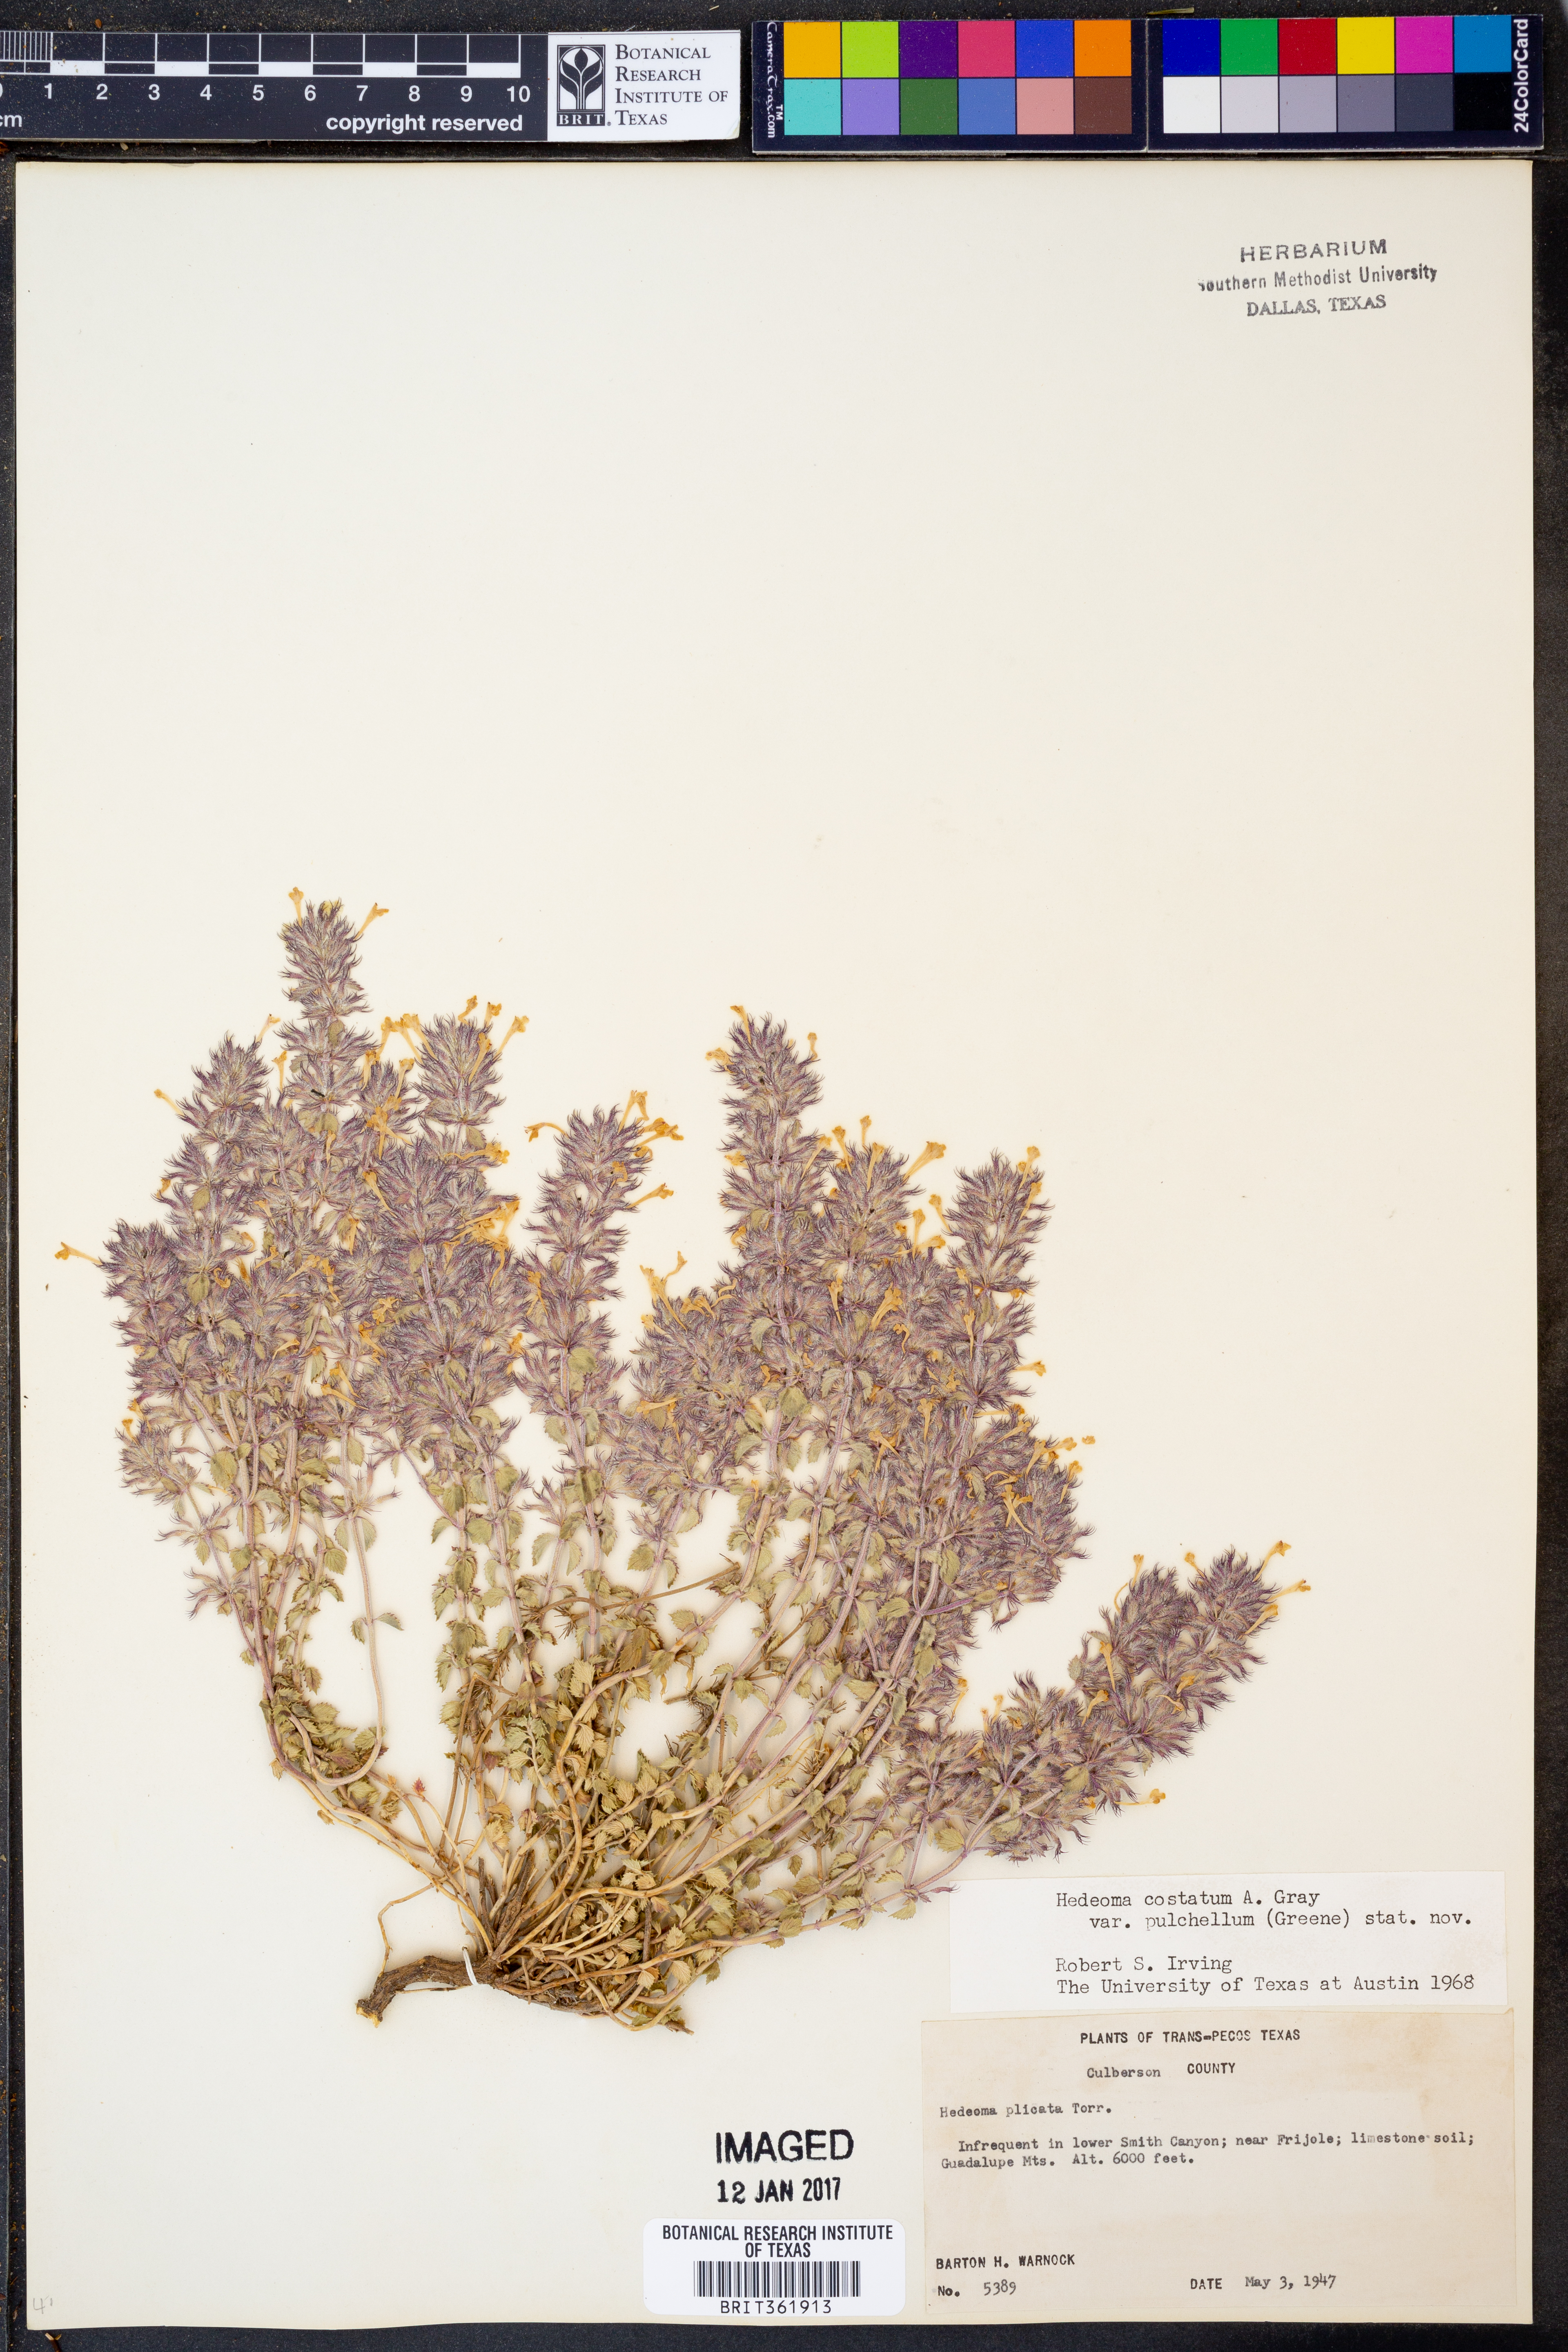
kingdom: Plantae
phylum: Tracheophyta
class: Magnoliopsida
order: Lamiales
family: Lamiaceae
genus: Hedeoma
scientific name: Hedeoma costata
